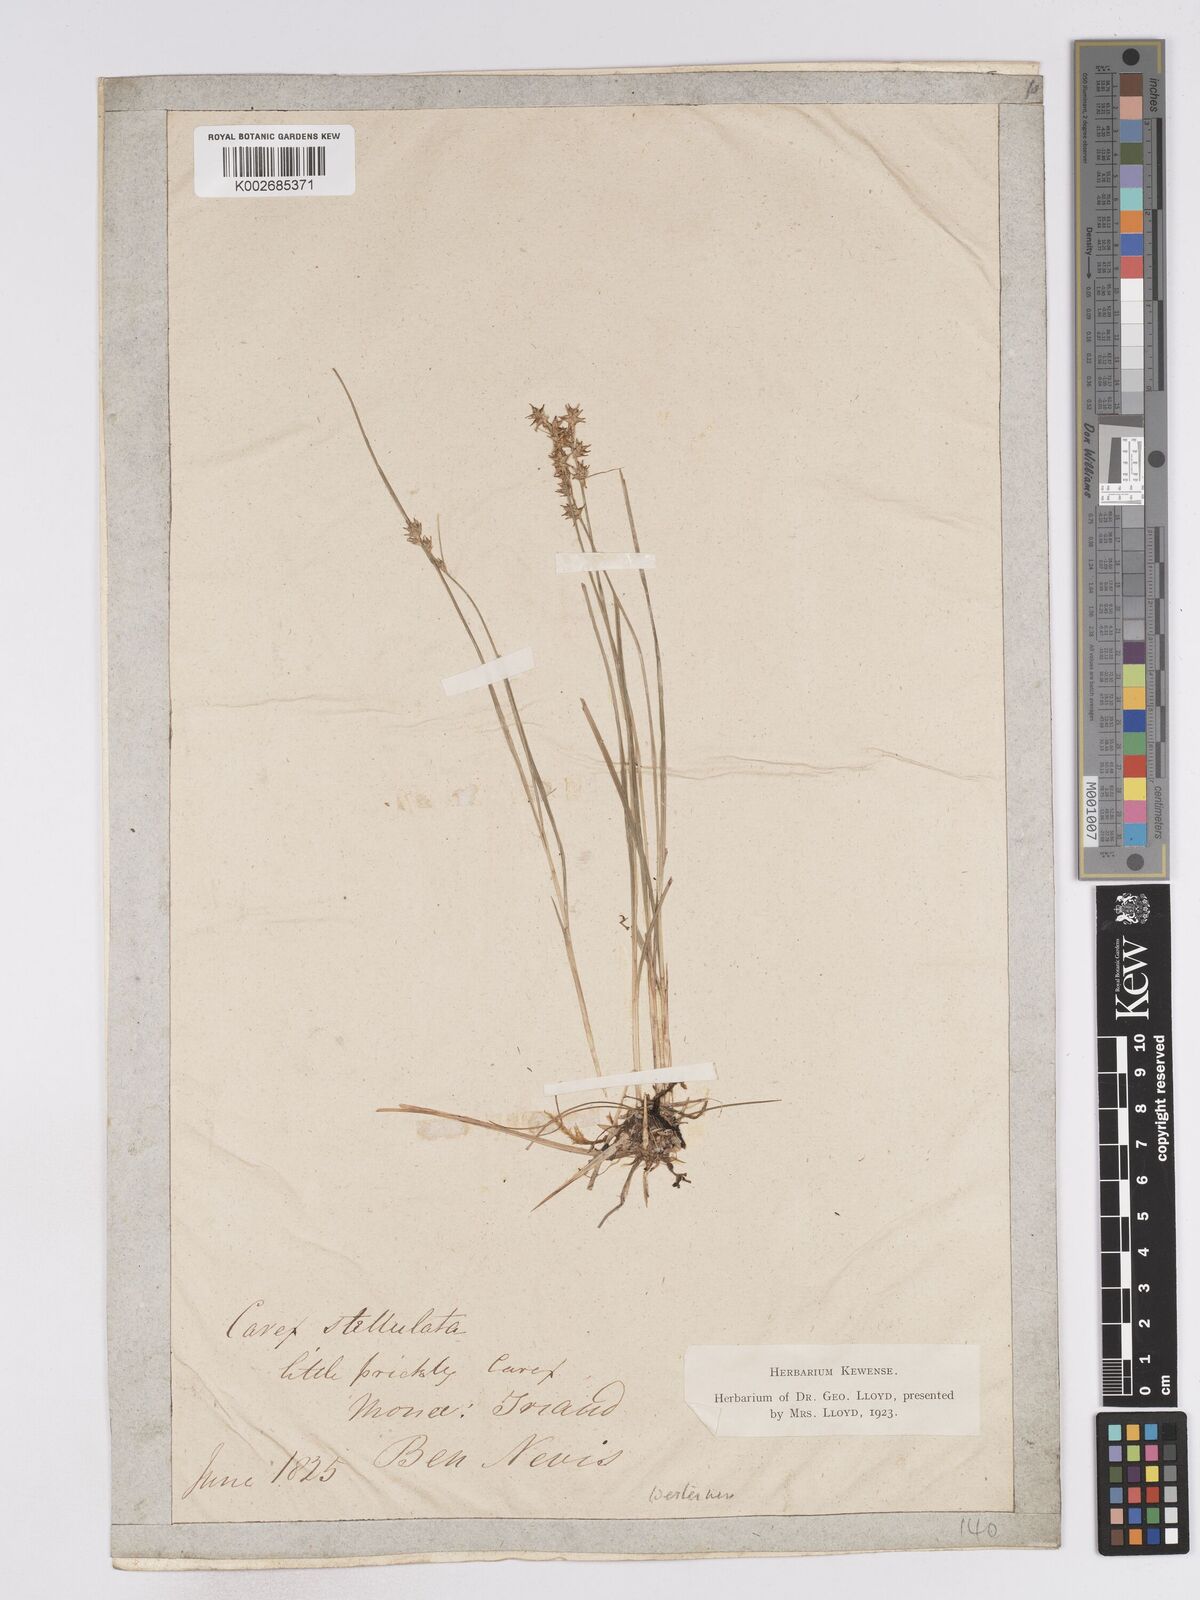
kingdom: Plantae
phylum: Tracheophyta
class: Liliopsida
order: Poales
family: Cyperaceae
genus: Carex
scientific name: Carex echinata
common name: Star sedge
